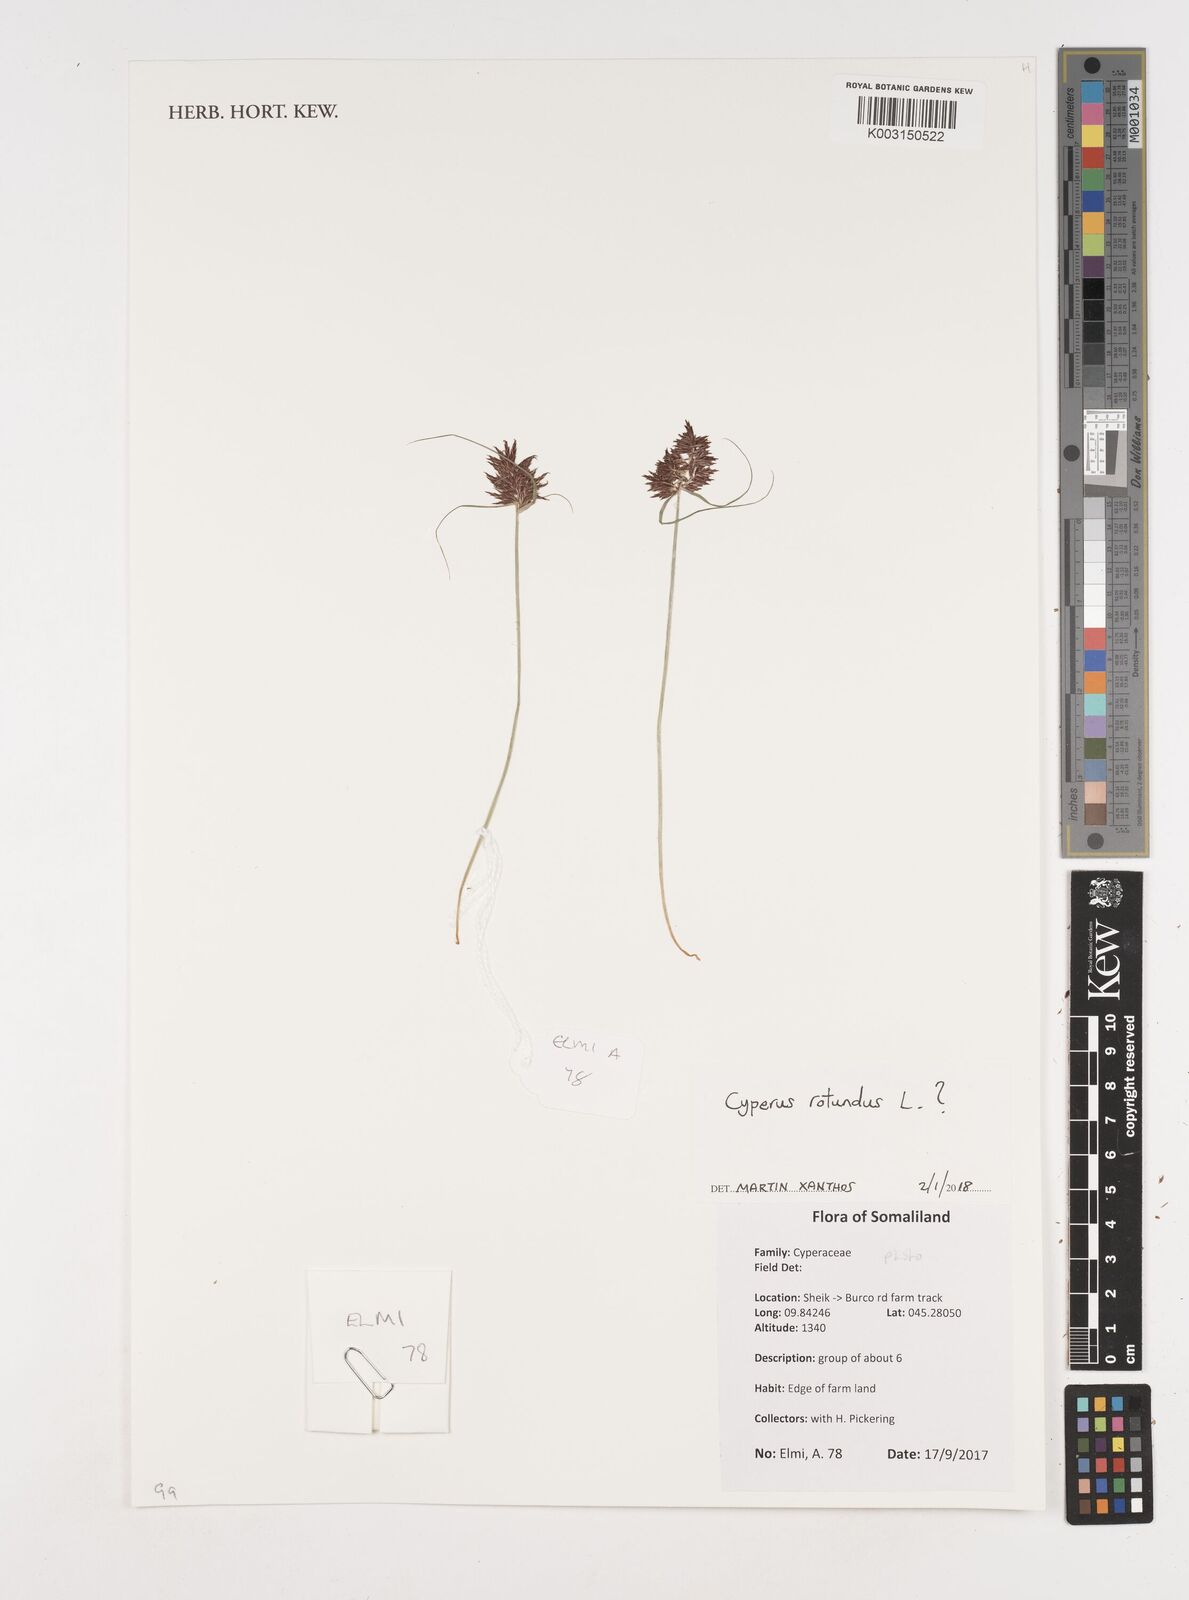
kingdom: Plantae
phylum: Tracheophyta
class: Liliopsida
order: Poales
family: Cyperaceae
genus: Cyperus
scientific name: Cyperus rotundus
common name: Nutgrass
